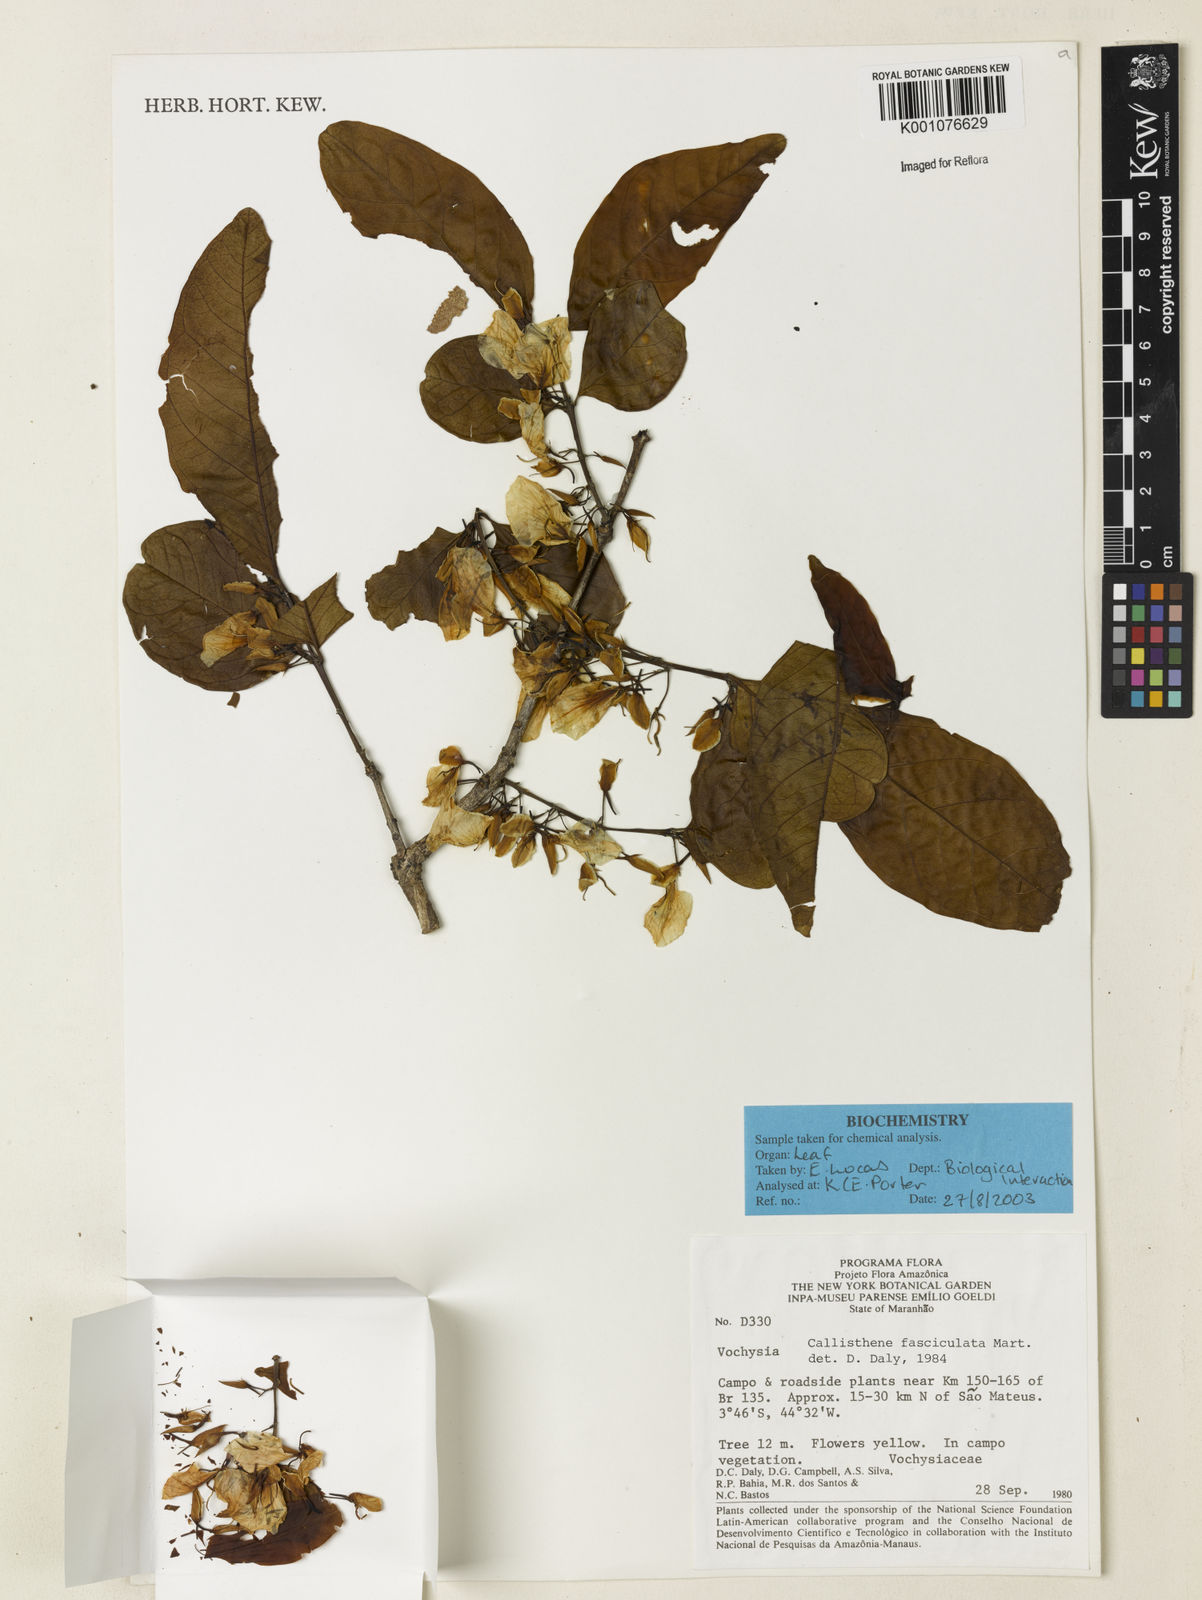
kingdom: Plantae
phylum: Tracheophyta
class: Magnoliopsida
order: Myrtales
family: Vochysiaceae
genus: Callisthene
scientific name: Callisthene fasciculata
